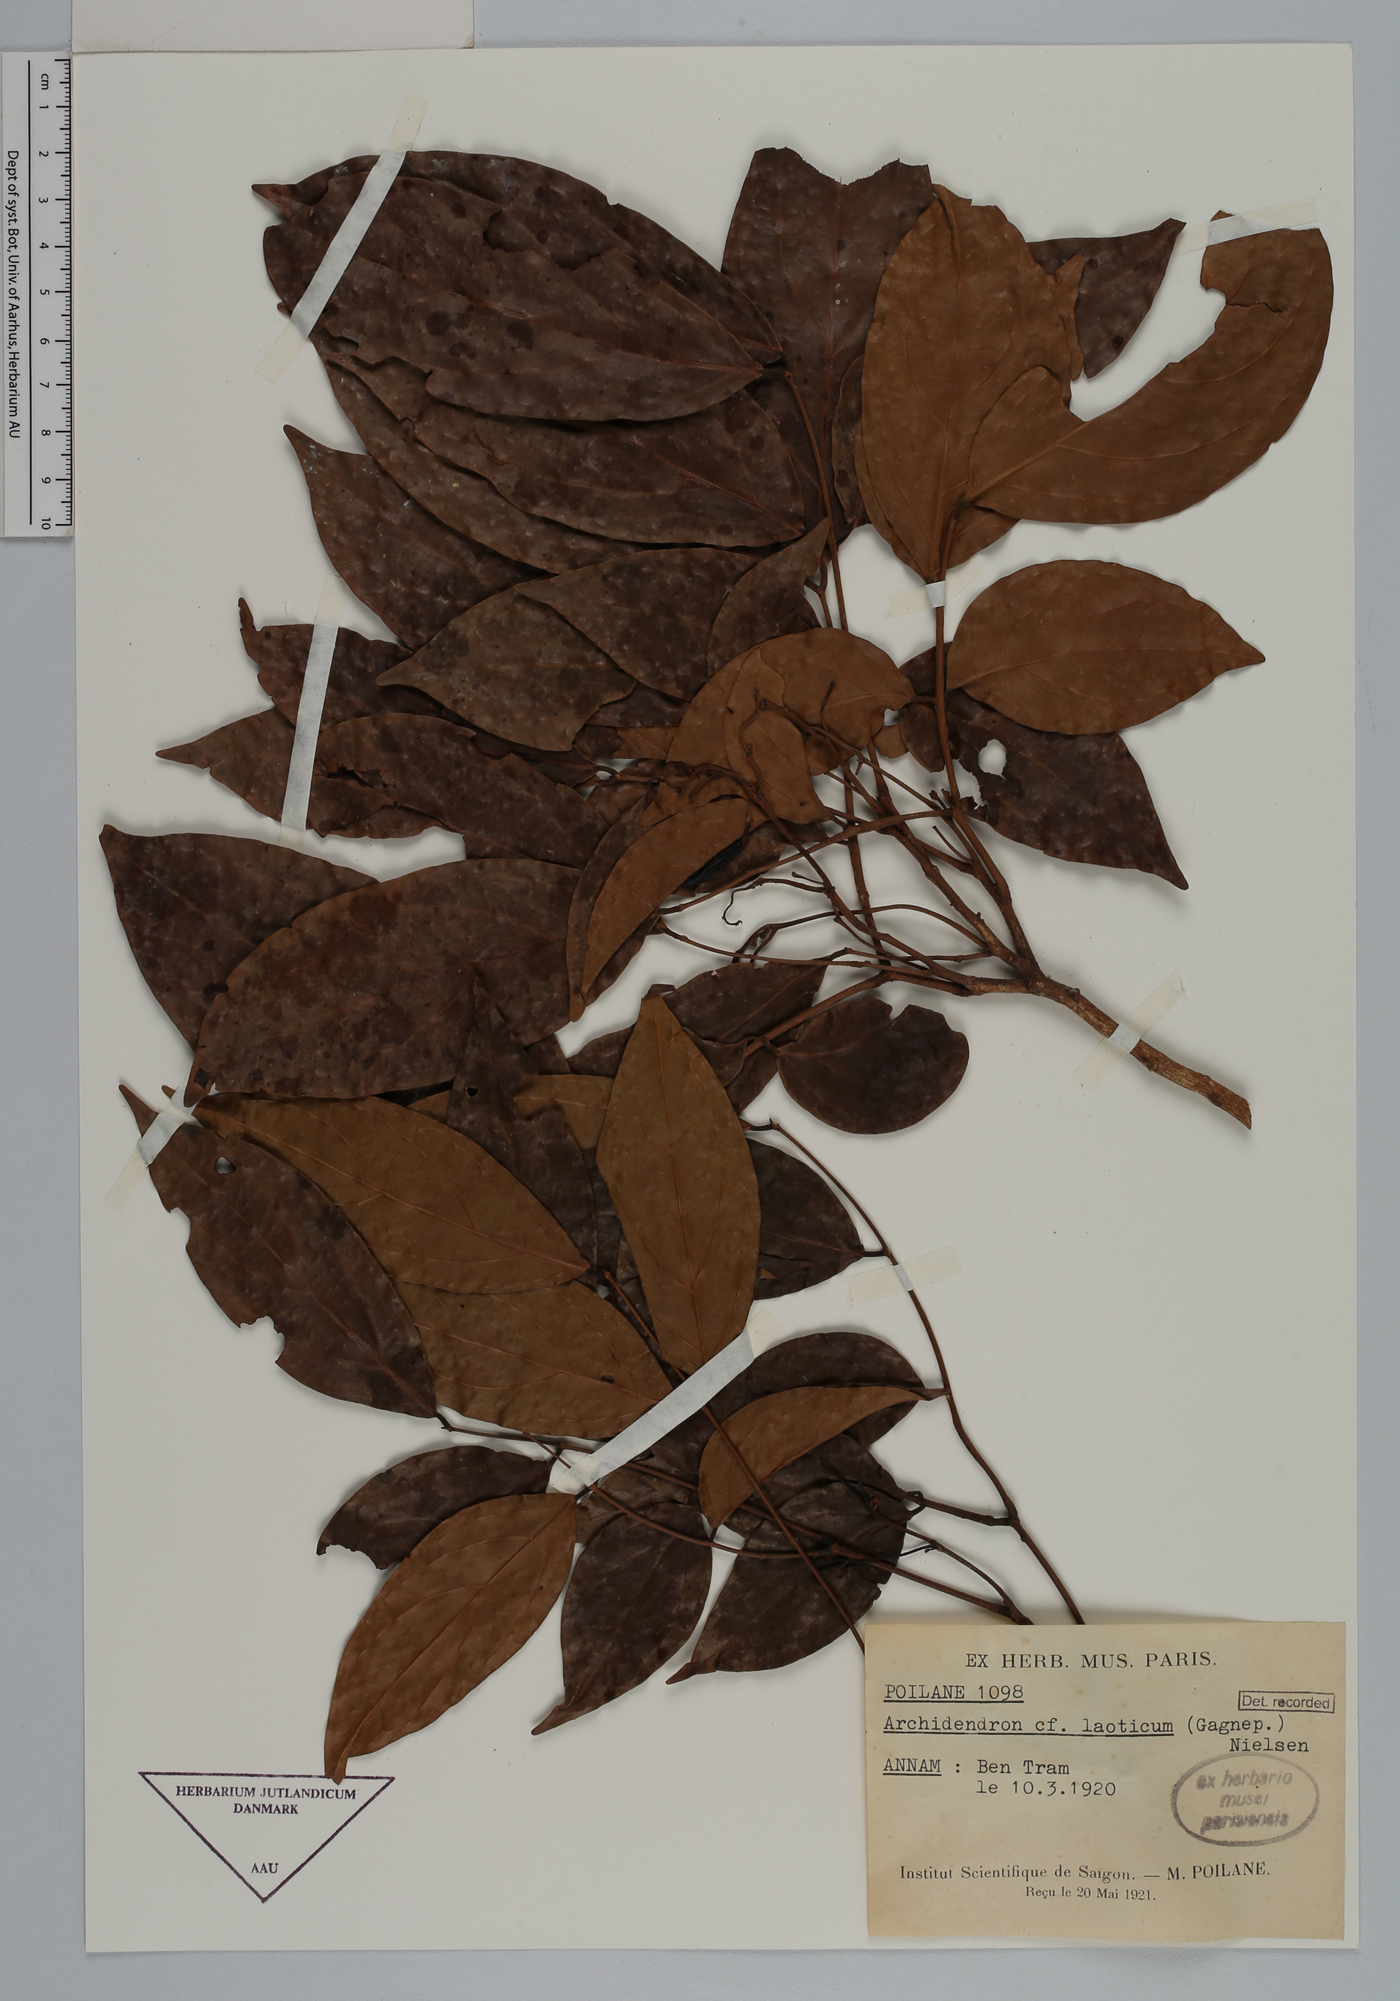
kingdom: Plantae
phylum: Tracheophyta
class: Magnoliopsida
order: Fabales
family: Fabaceae
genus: Archidendron
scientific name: Archidendron laoticum
